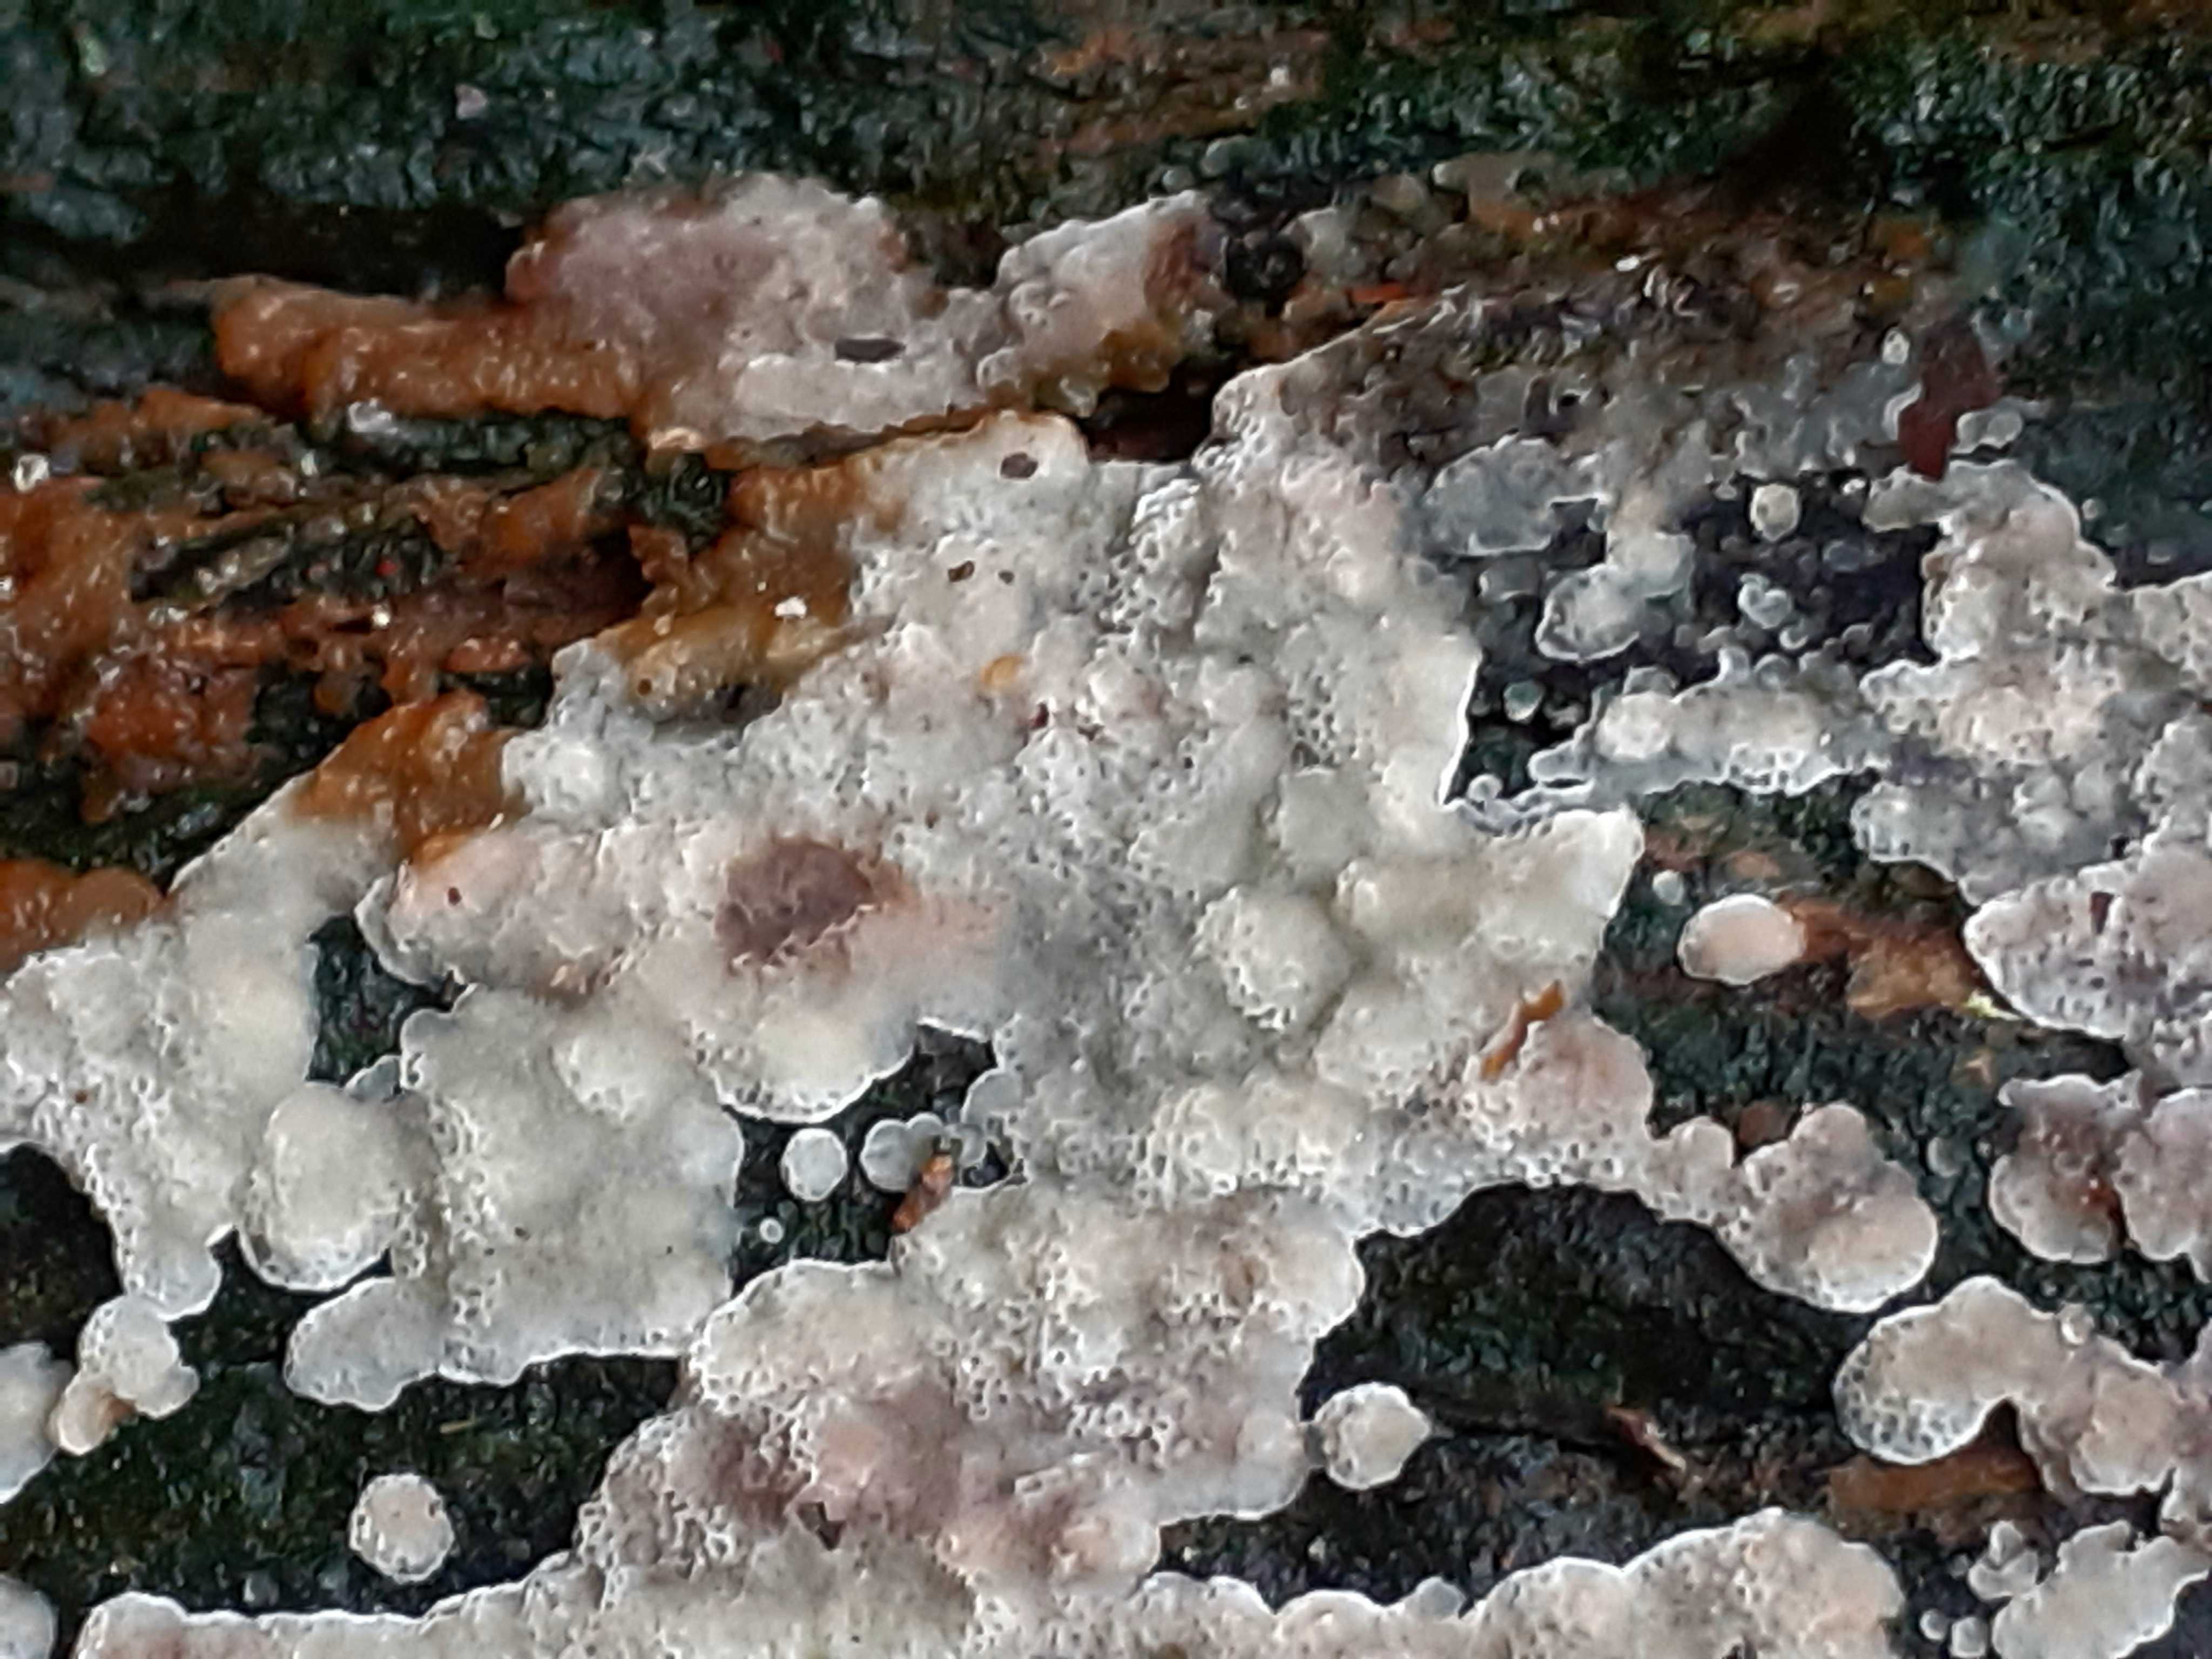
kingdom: Fungi
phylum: Basidiomycota
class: Agaricomycetes
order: Polyporales
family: Meruliaceae
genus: Physisporinus
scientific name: Physisporinus vitreus
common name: mastesvamp
